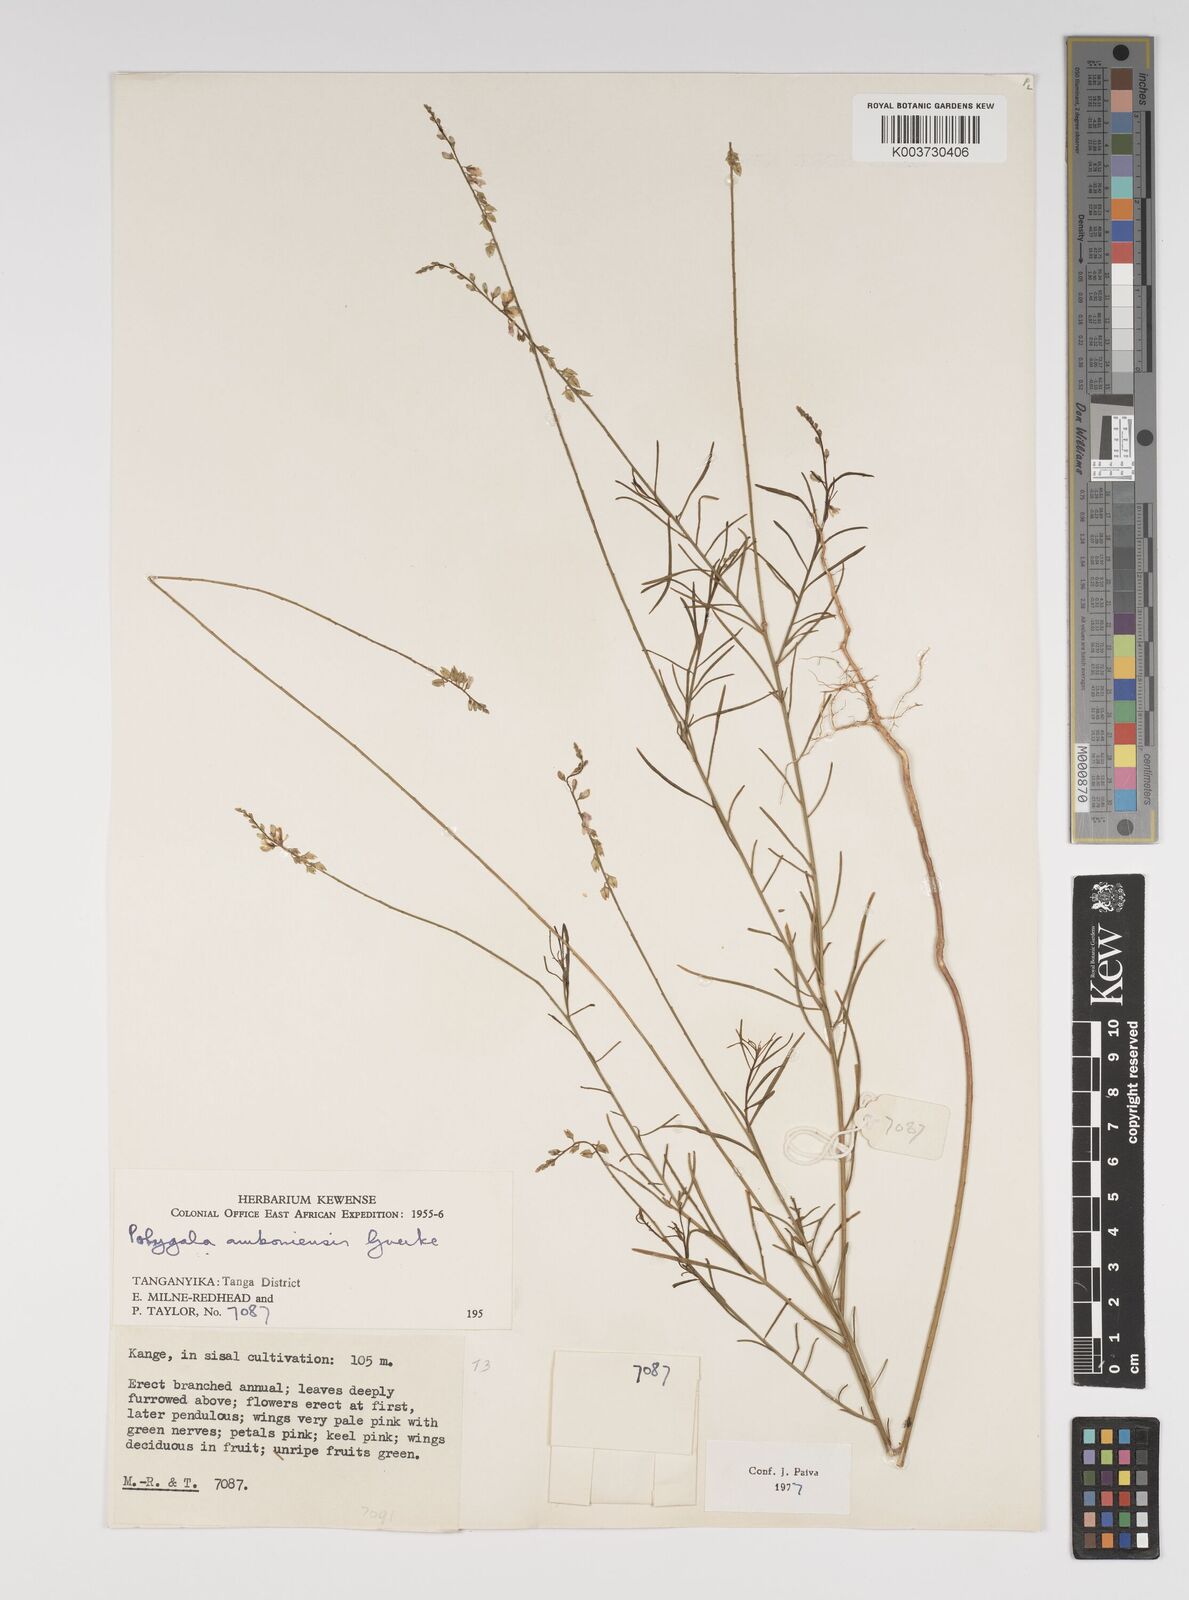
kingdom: Plantae
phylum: Tracheophyta
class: Magnoliopsida
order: Fabales
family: Polygalaceae
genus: Polygala
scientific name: Polygala amboniensis
